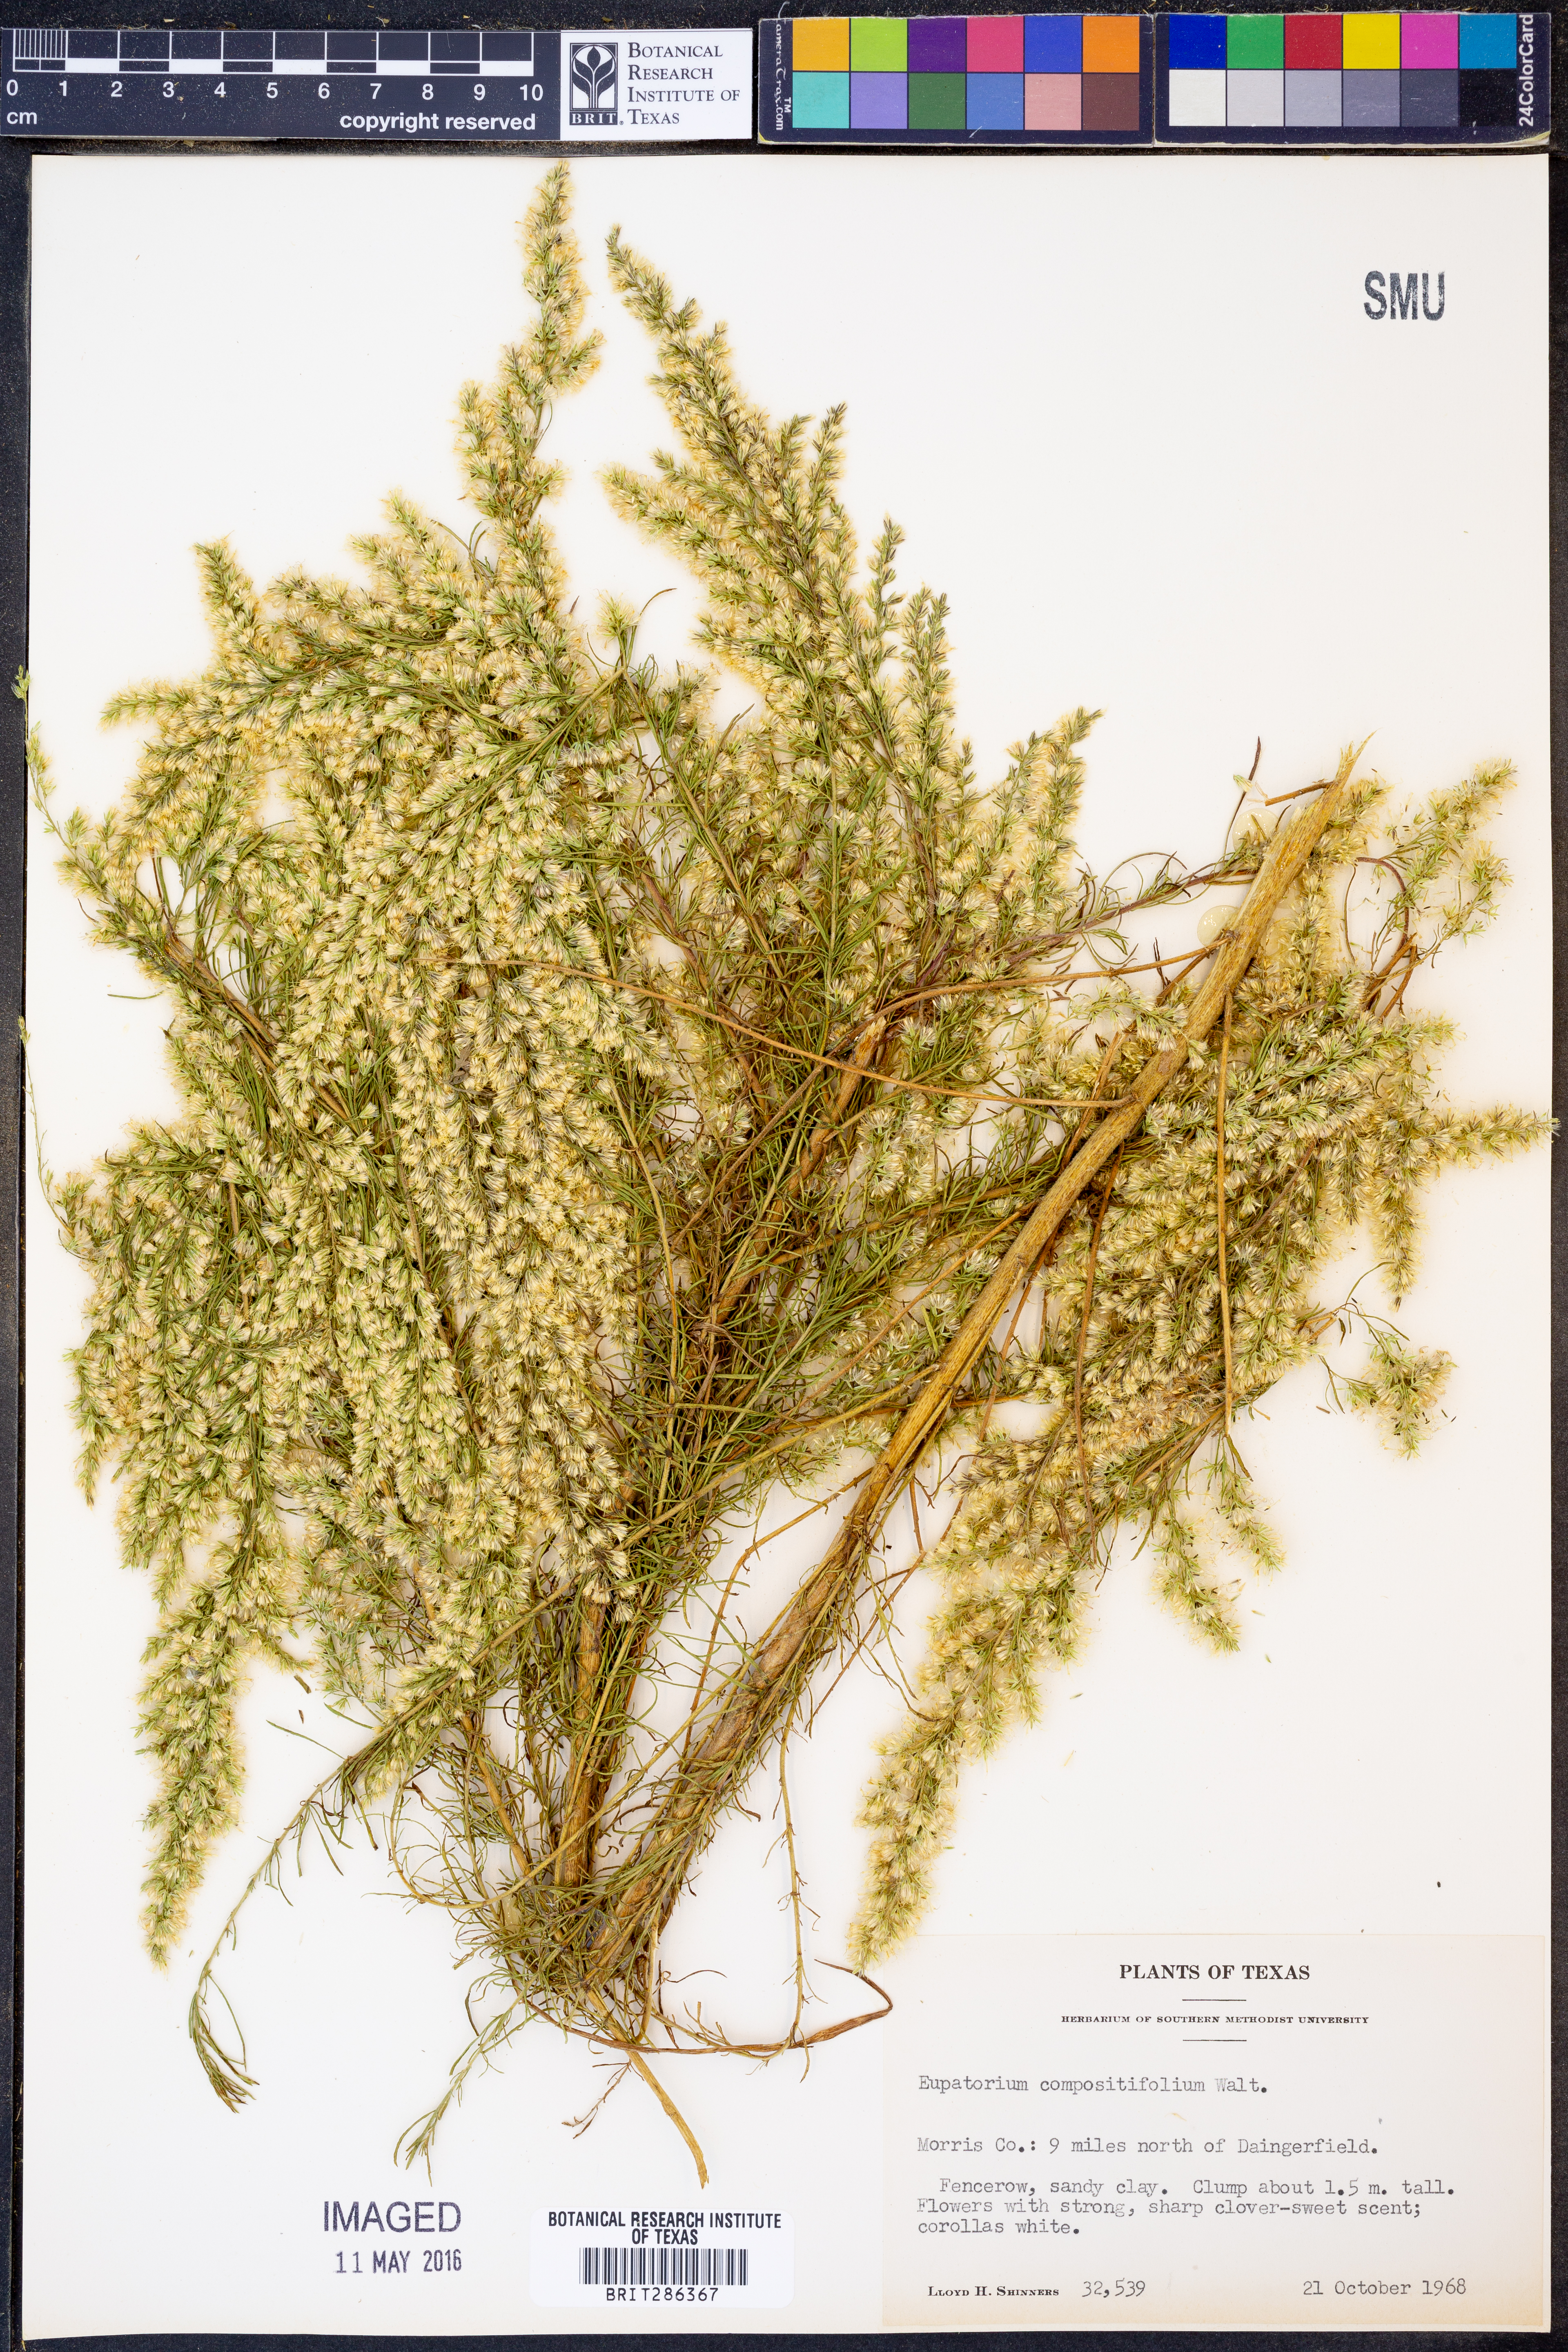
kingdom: Plantae
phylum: Tracheophyta
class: Magnoliopsida
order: Asterales
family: Asteraceae
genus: Eupatorium
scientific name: Eupatorium compositifolium
